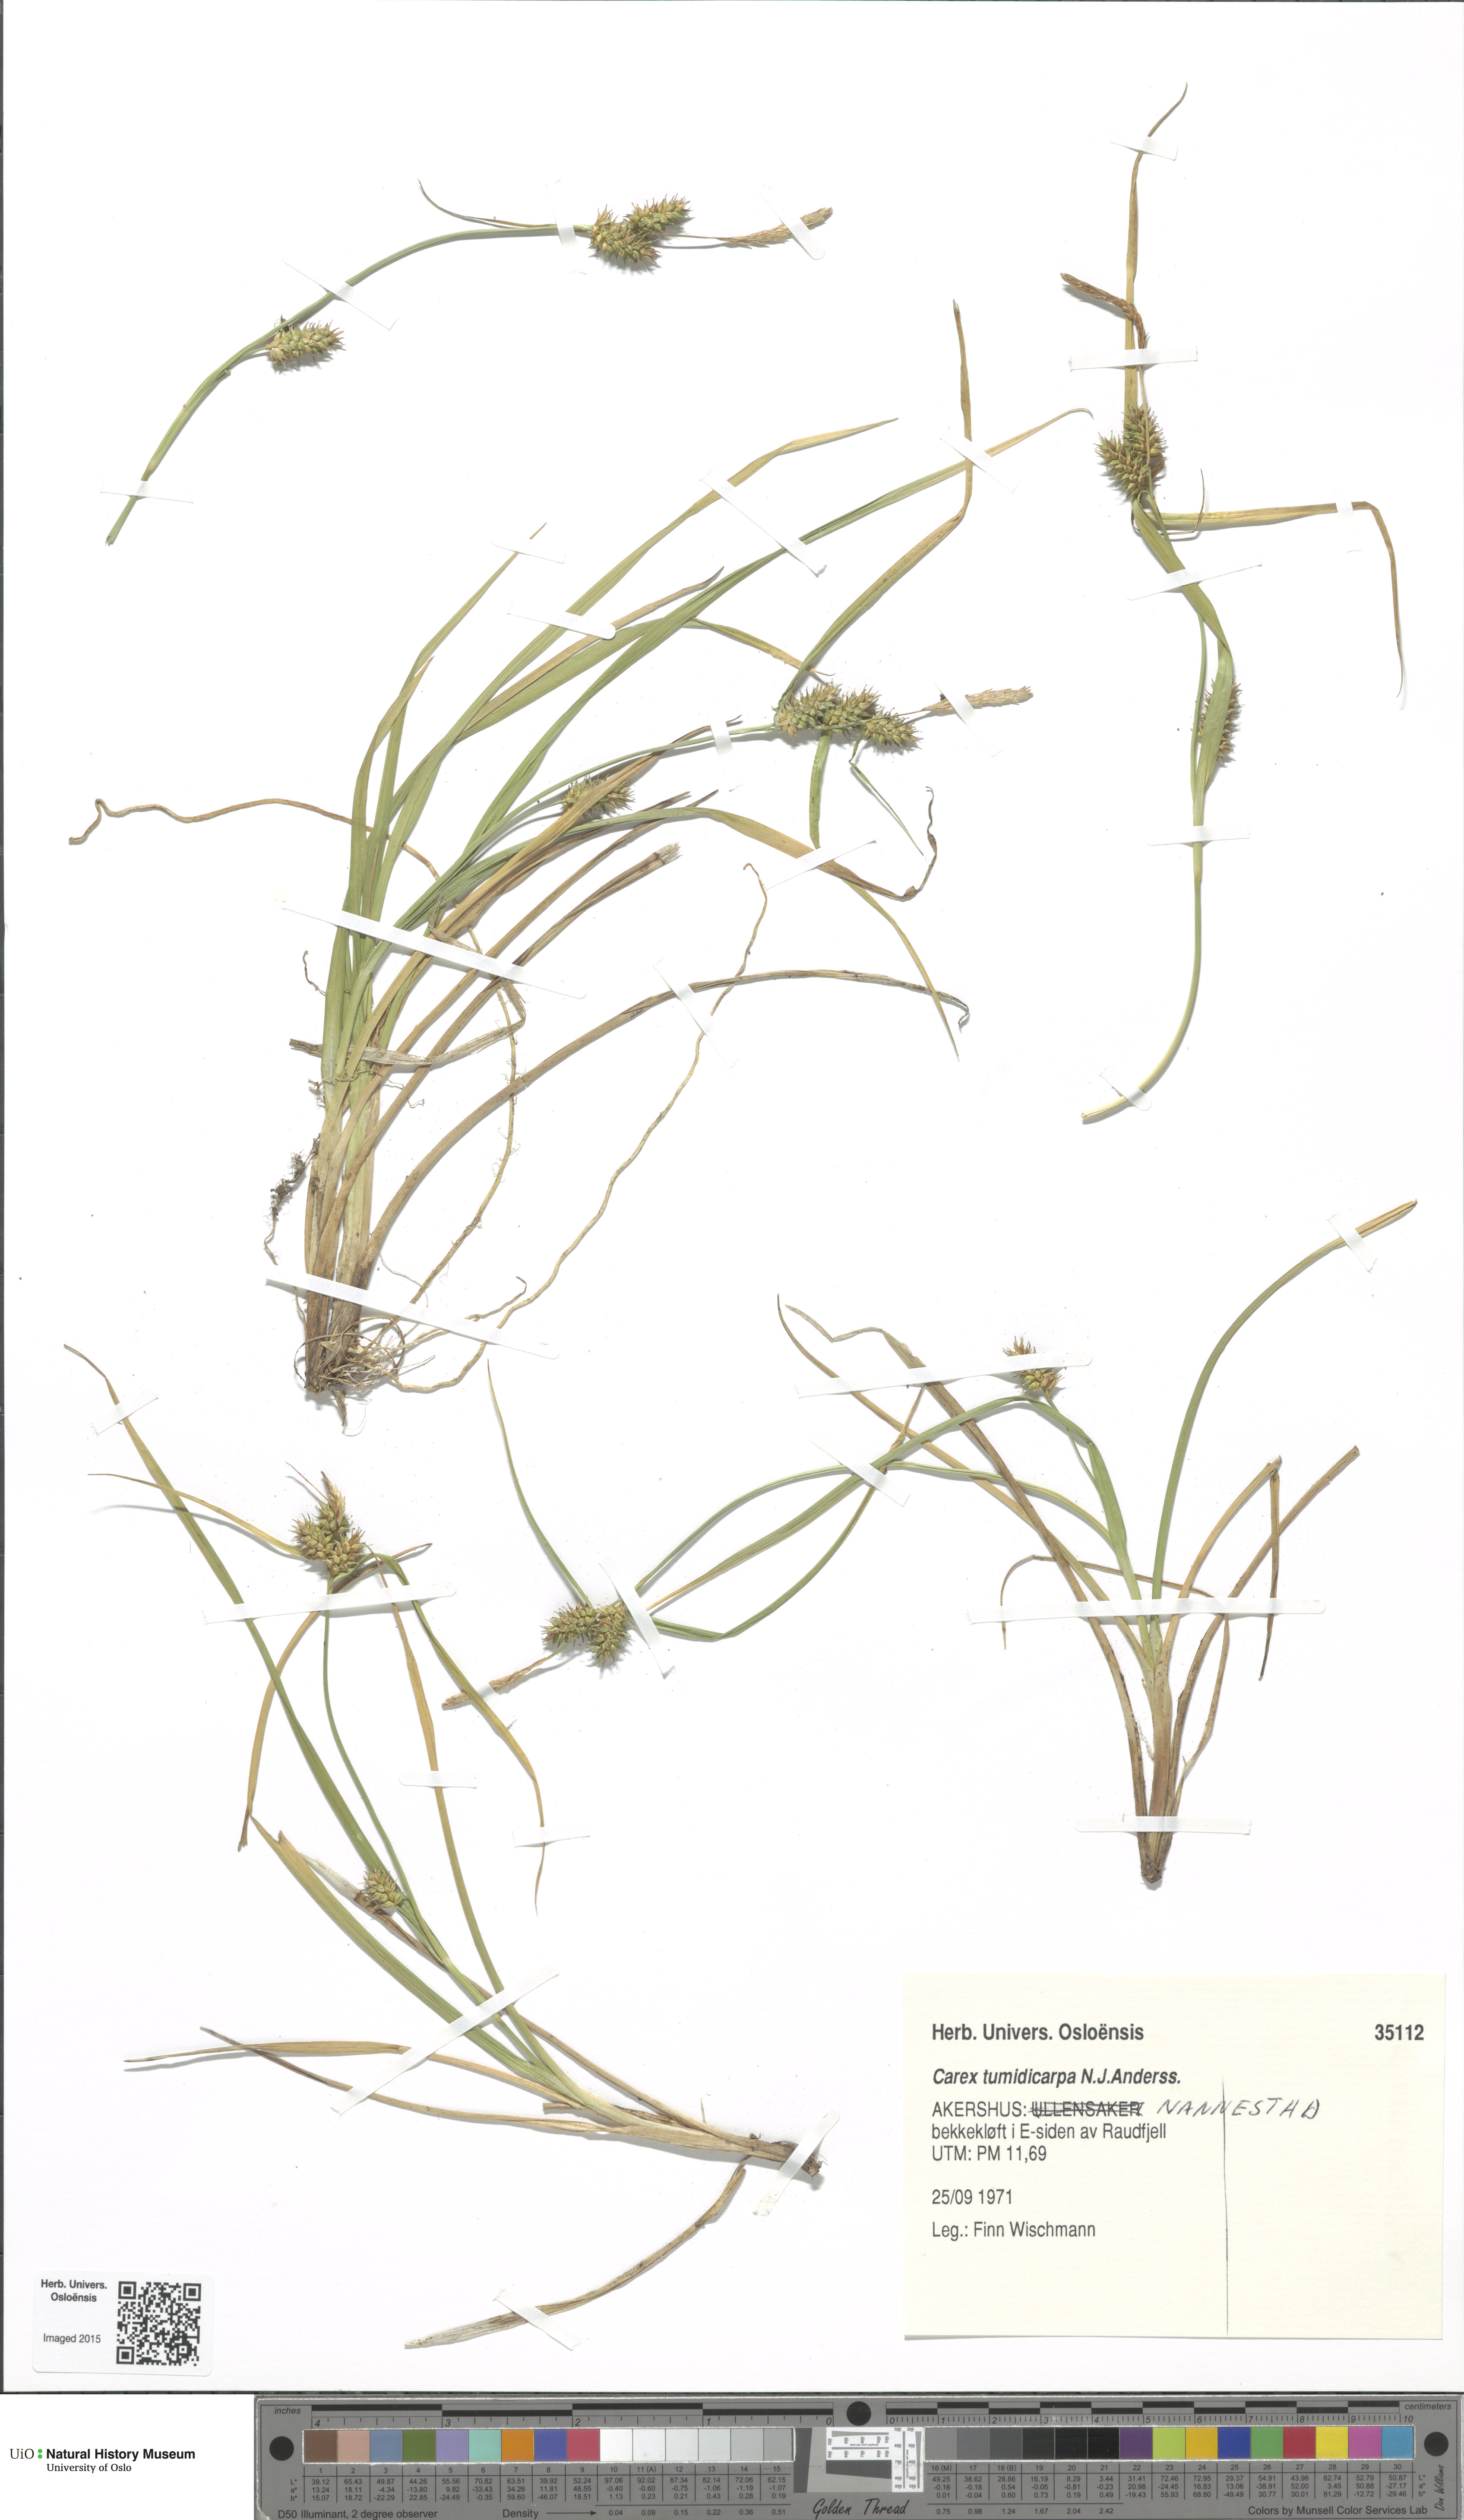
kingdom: Plantae
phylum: Tracheophyta
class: Liliopsida
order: Poales
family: Cyperaceae
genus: Carex
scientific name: Carex demissa
